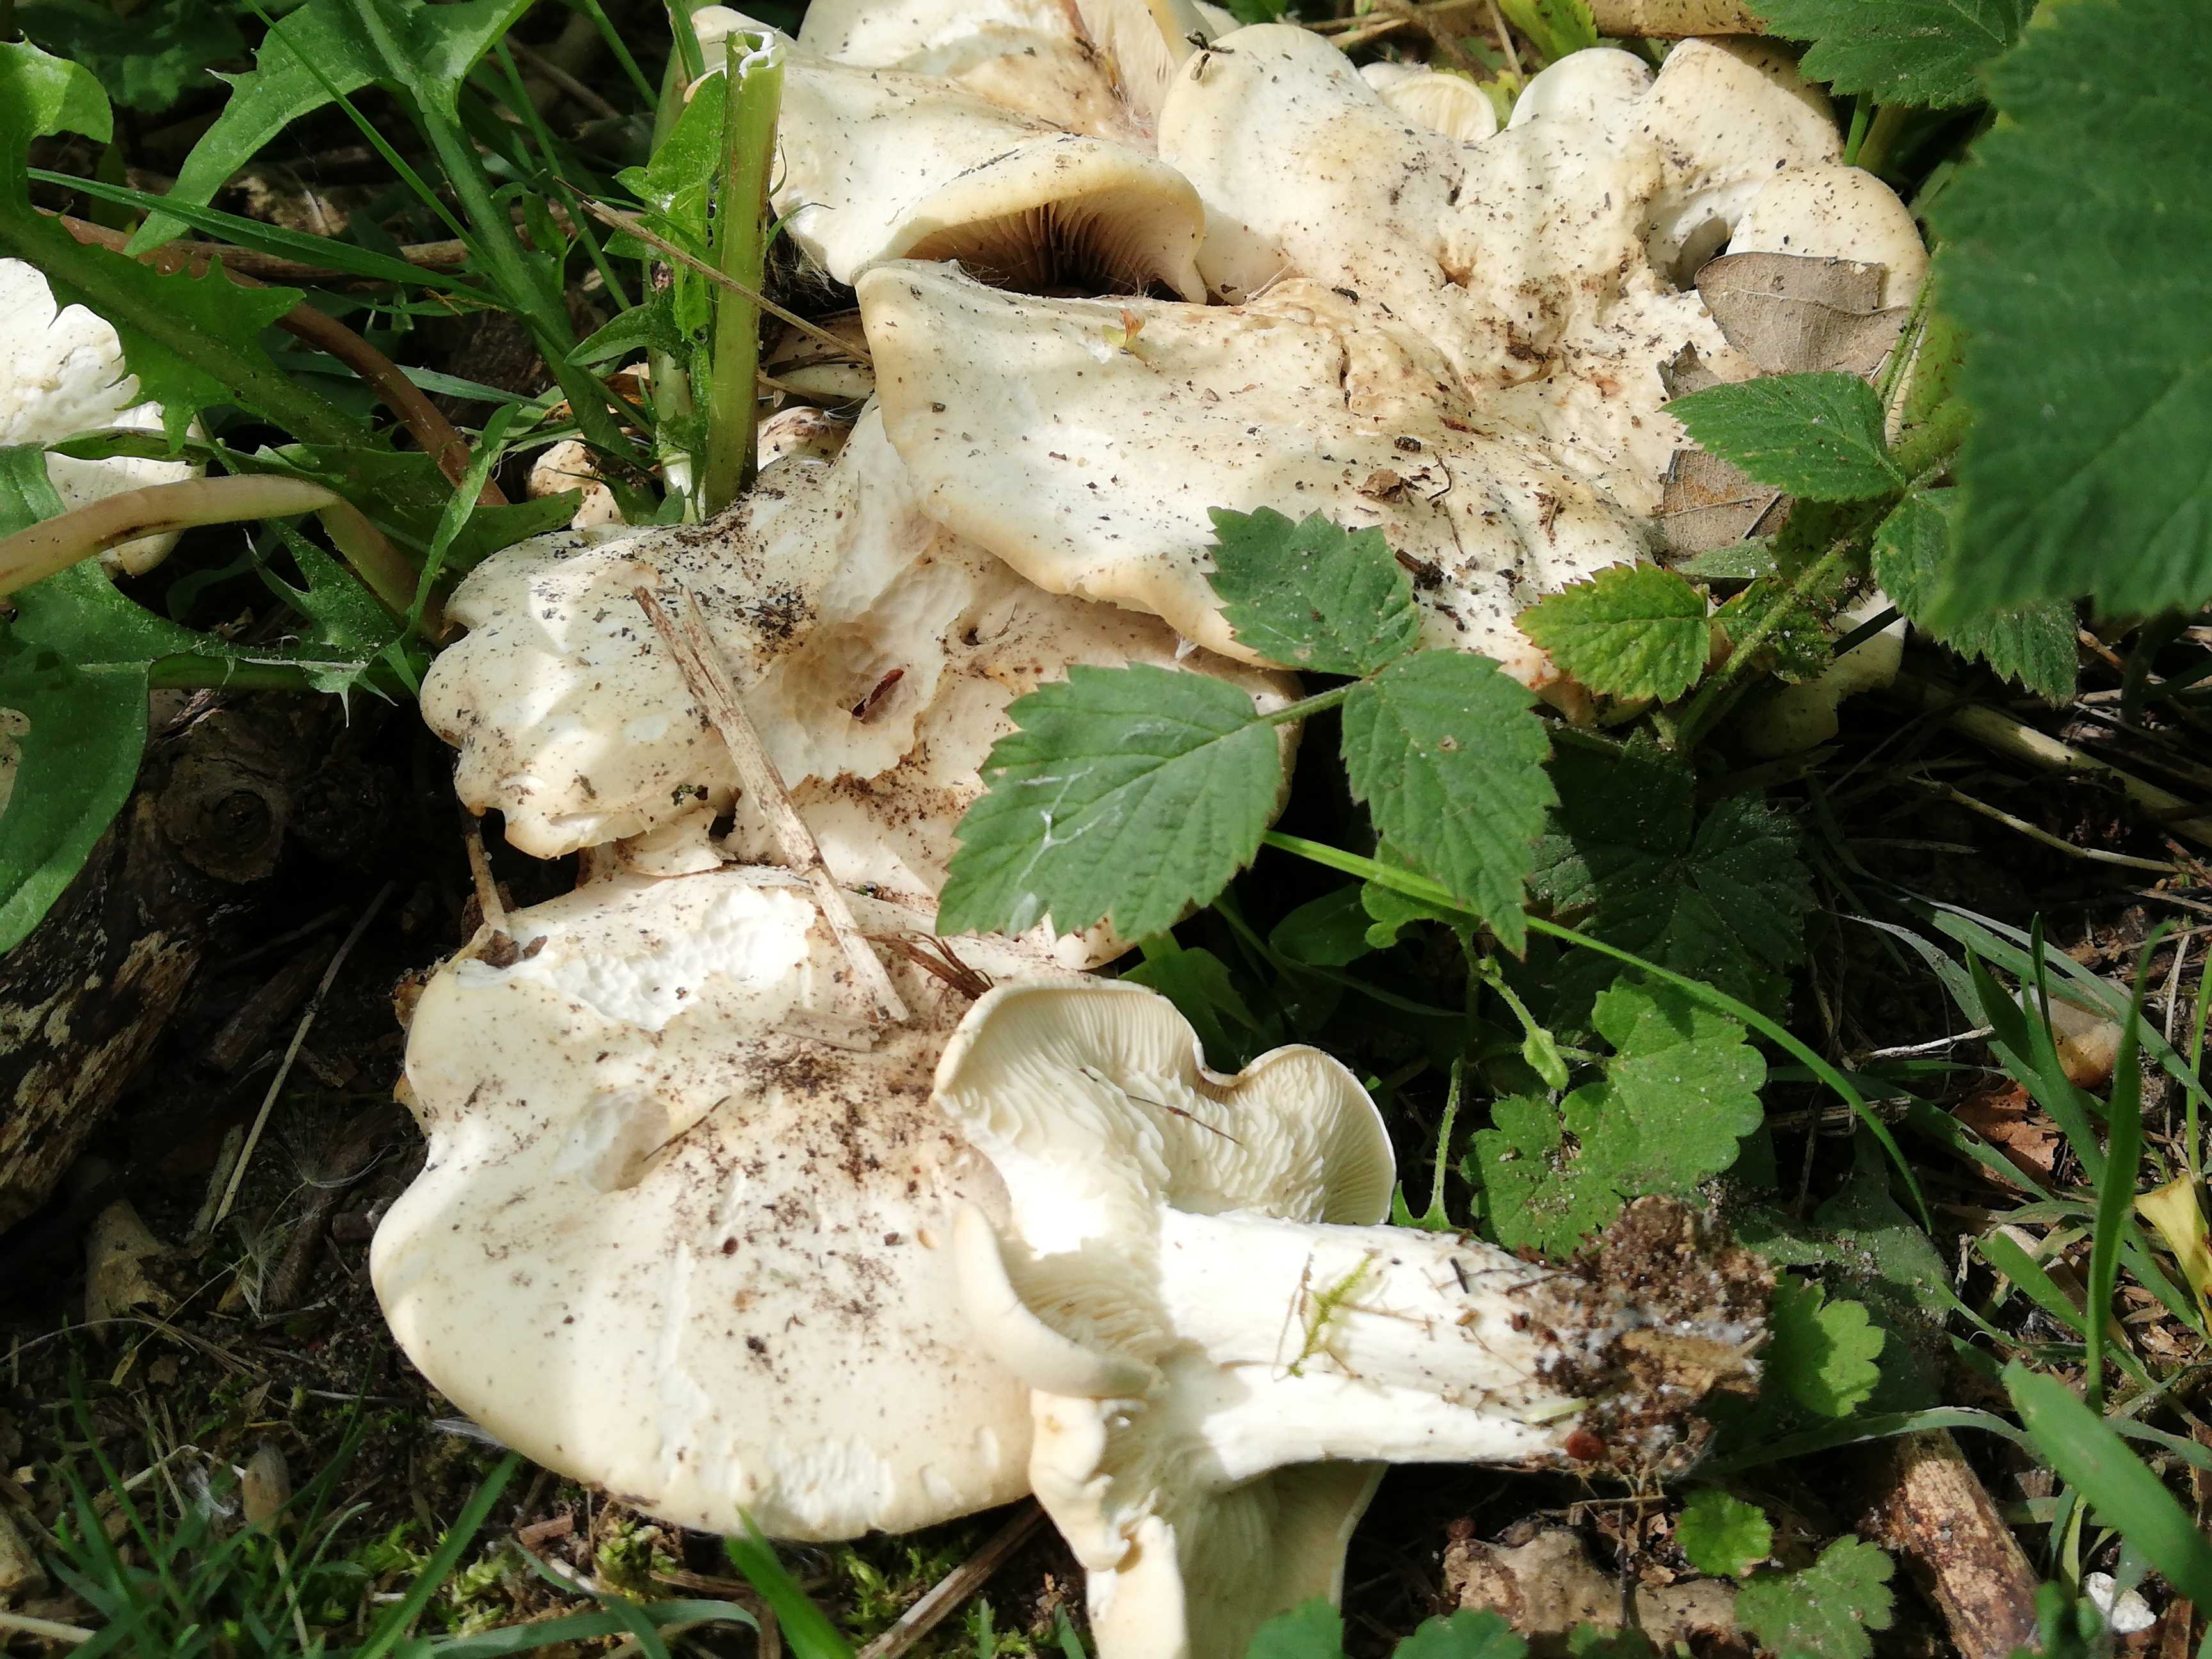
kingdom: Fungi
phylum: Basidiomycota
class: Agaricomycetes
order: Agaricales
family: Lyophyllaceae
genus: Calocybe
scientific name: Calocybe gambosa
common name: vårmusseron
